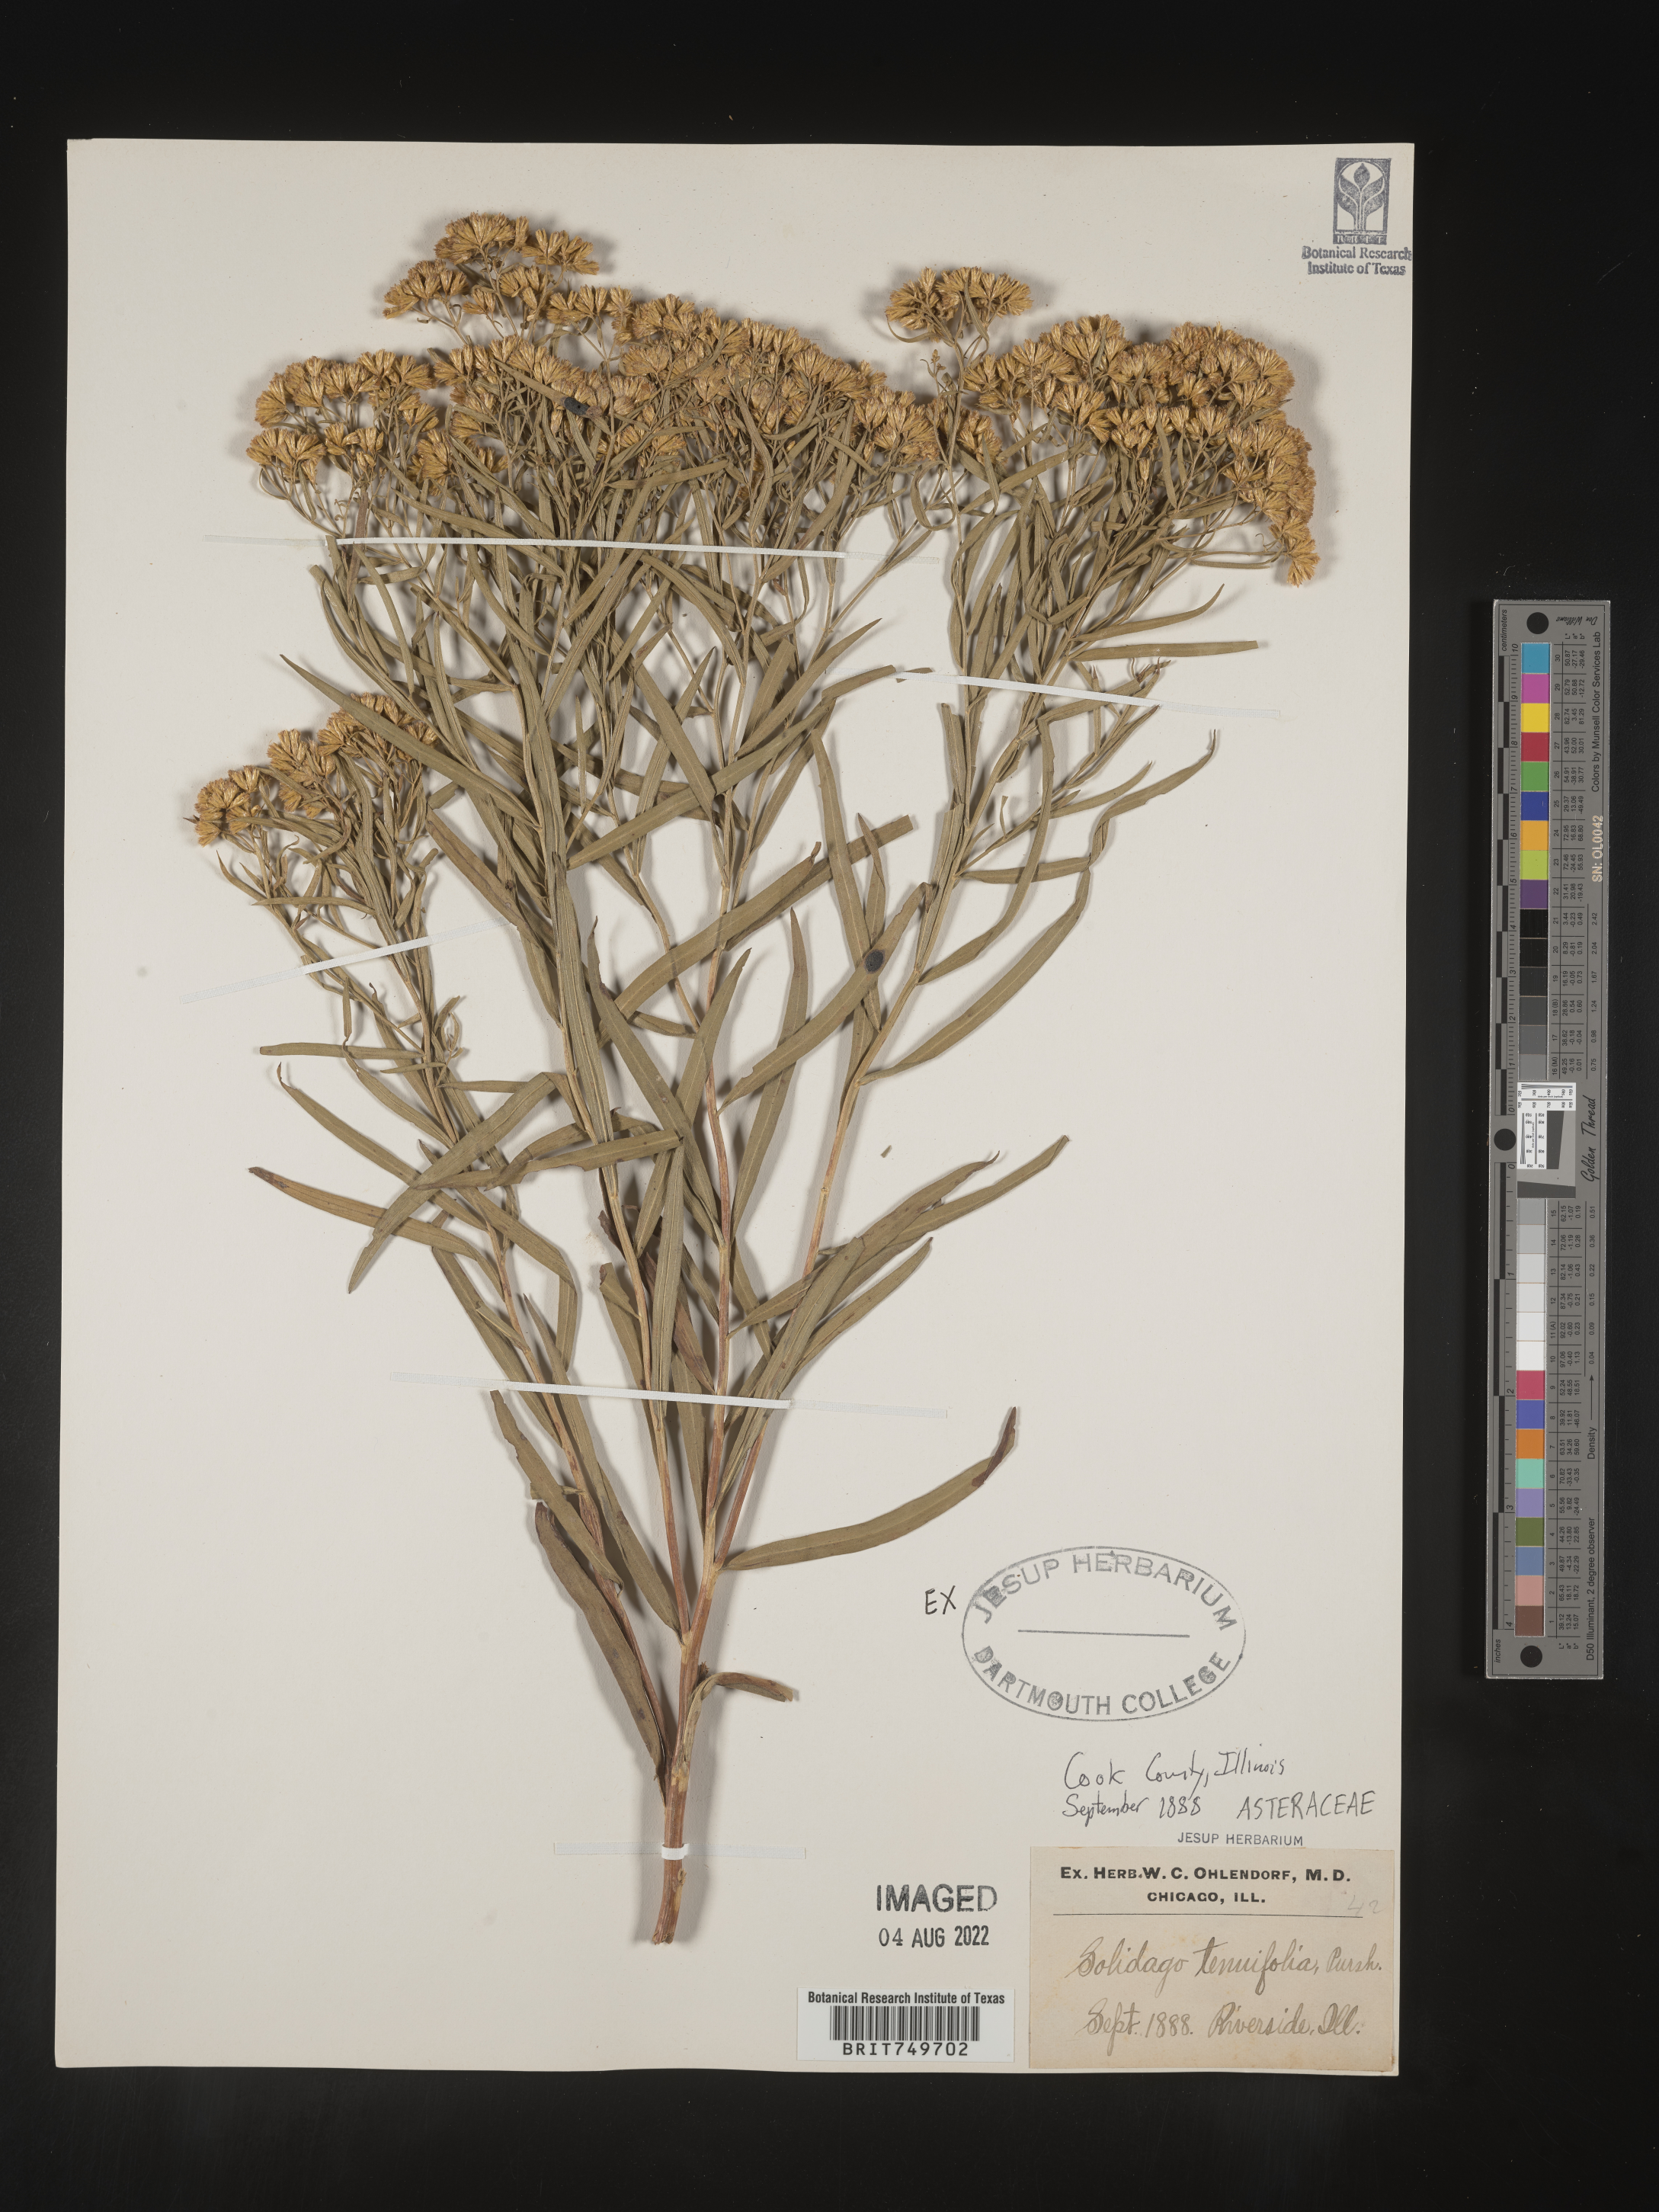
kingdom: Plantae
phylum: Tracheophyta
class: Magnoliopsida
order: Asterales
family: Asteraceae
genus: Euthamia
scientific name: Euthamia caroliniana
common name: Coastal plain goldentop
